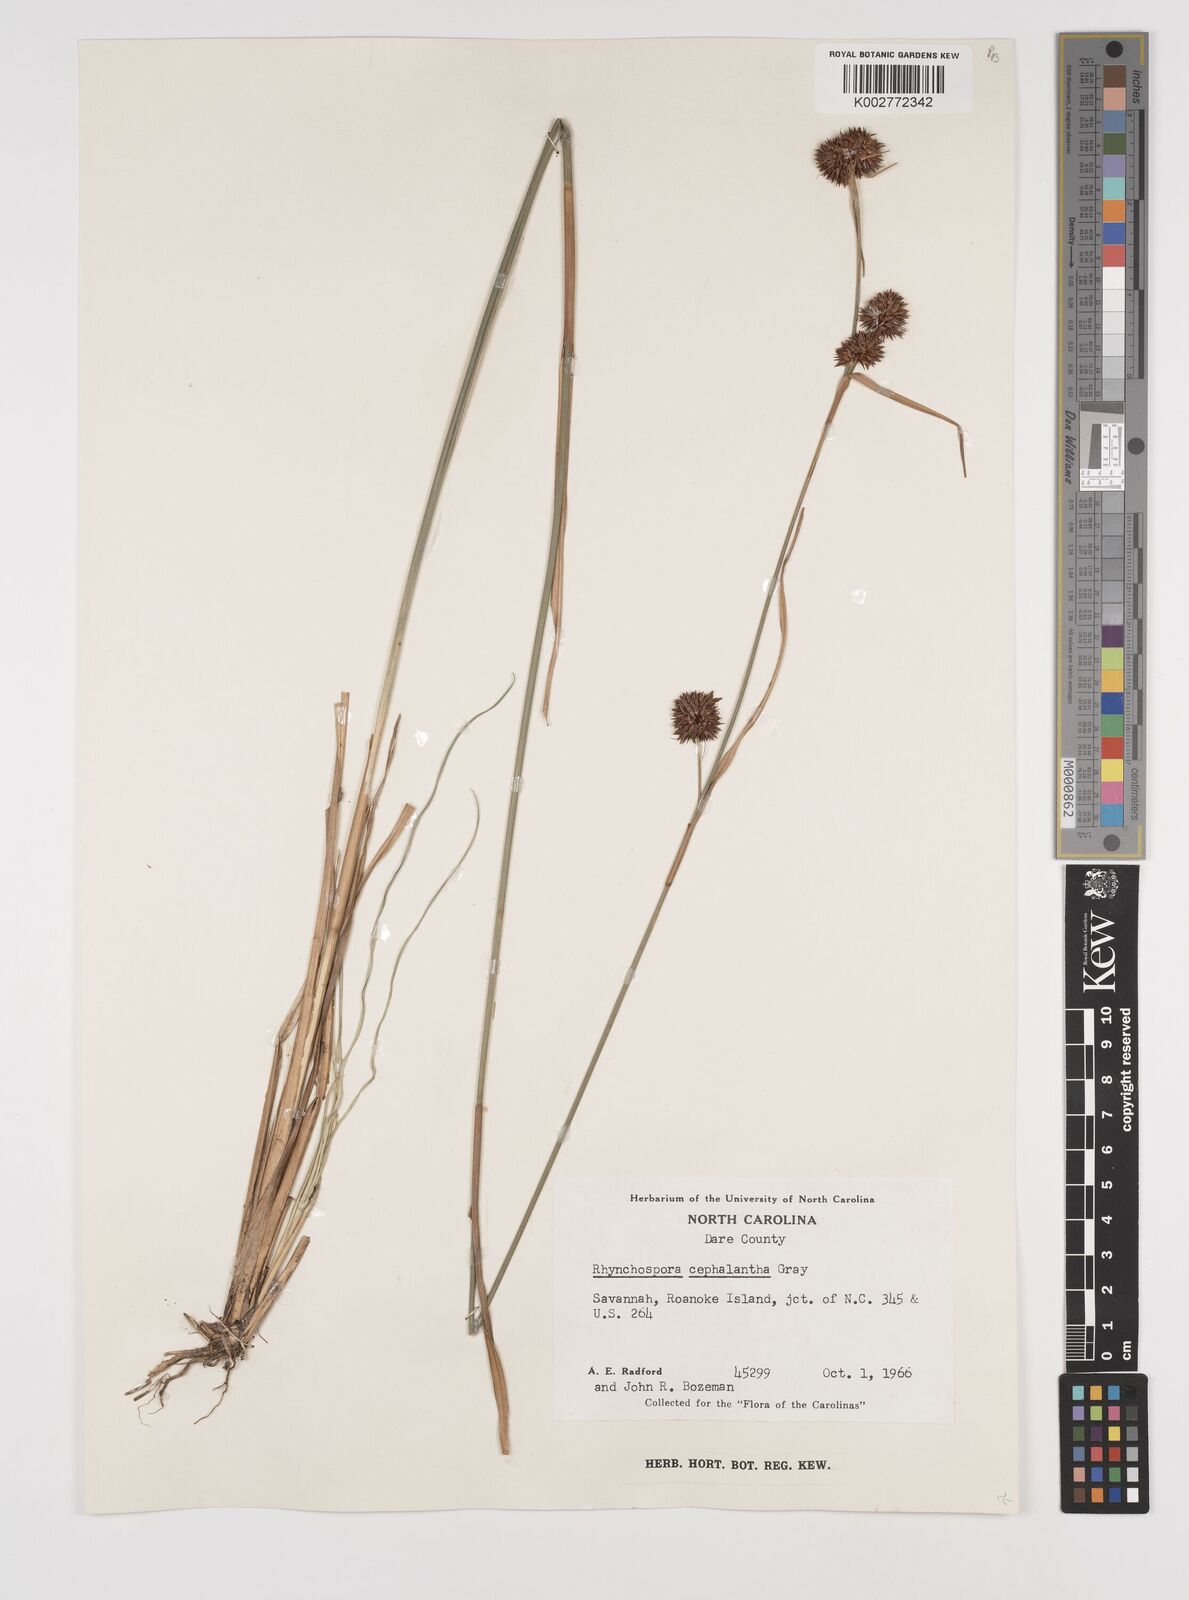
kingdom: Plantae
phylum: Tracheophyta
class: Liliopsida
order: Poales
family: Cyperaceae
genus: Rhynchospora
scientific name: Rhynchospora cephalantha
